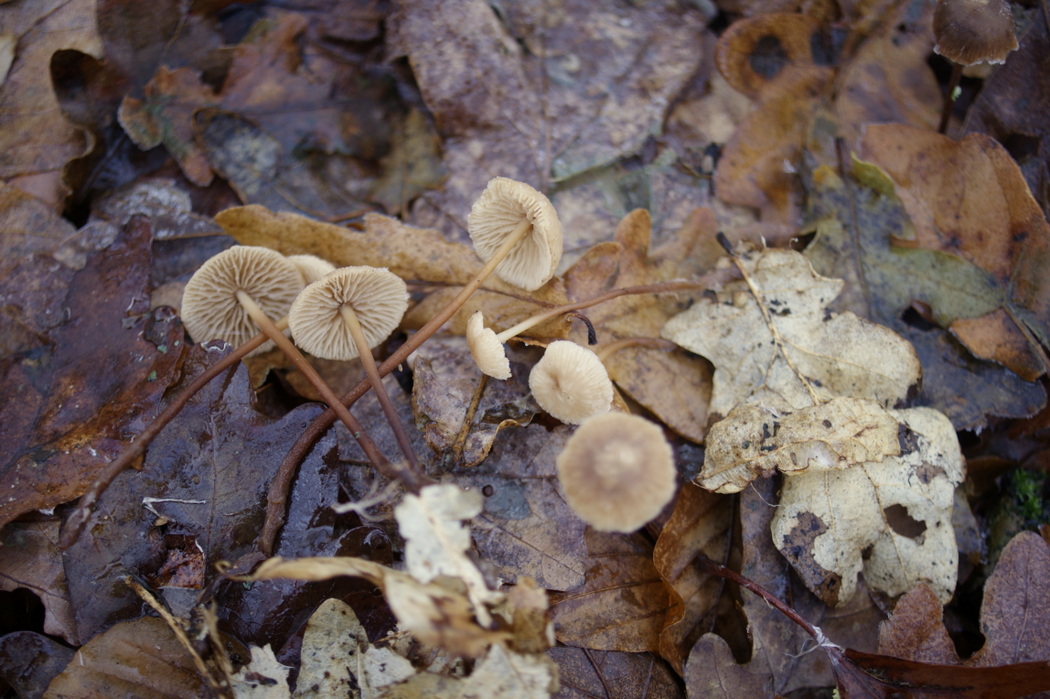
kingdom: Fungi
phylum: Basidiomycota
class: Agaricomycetes
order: Agaricales
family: Omphalotaceae
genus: Mycetinis
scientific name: Mycetinis querceus
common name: ege-løghat
